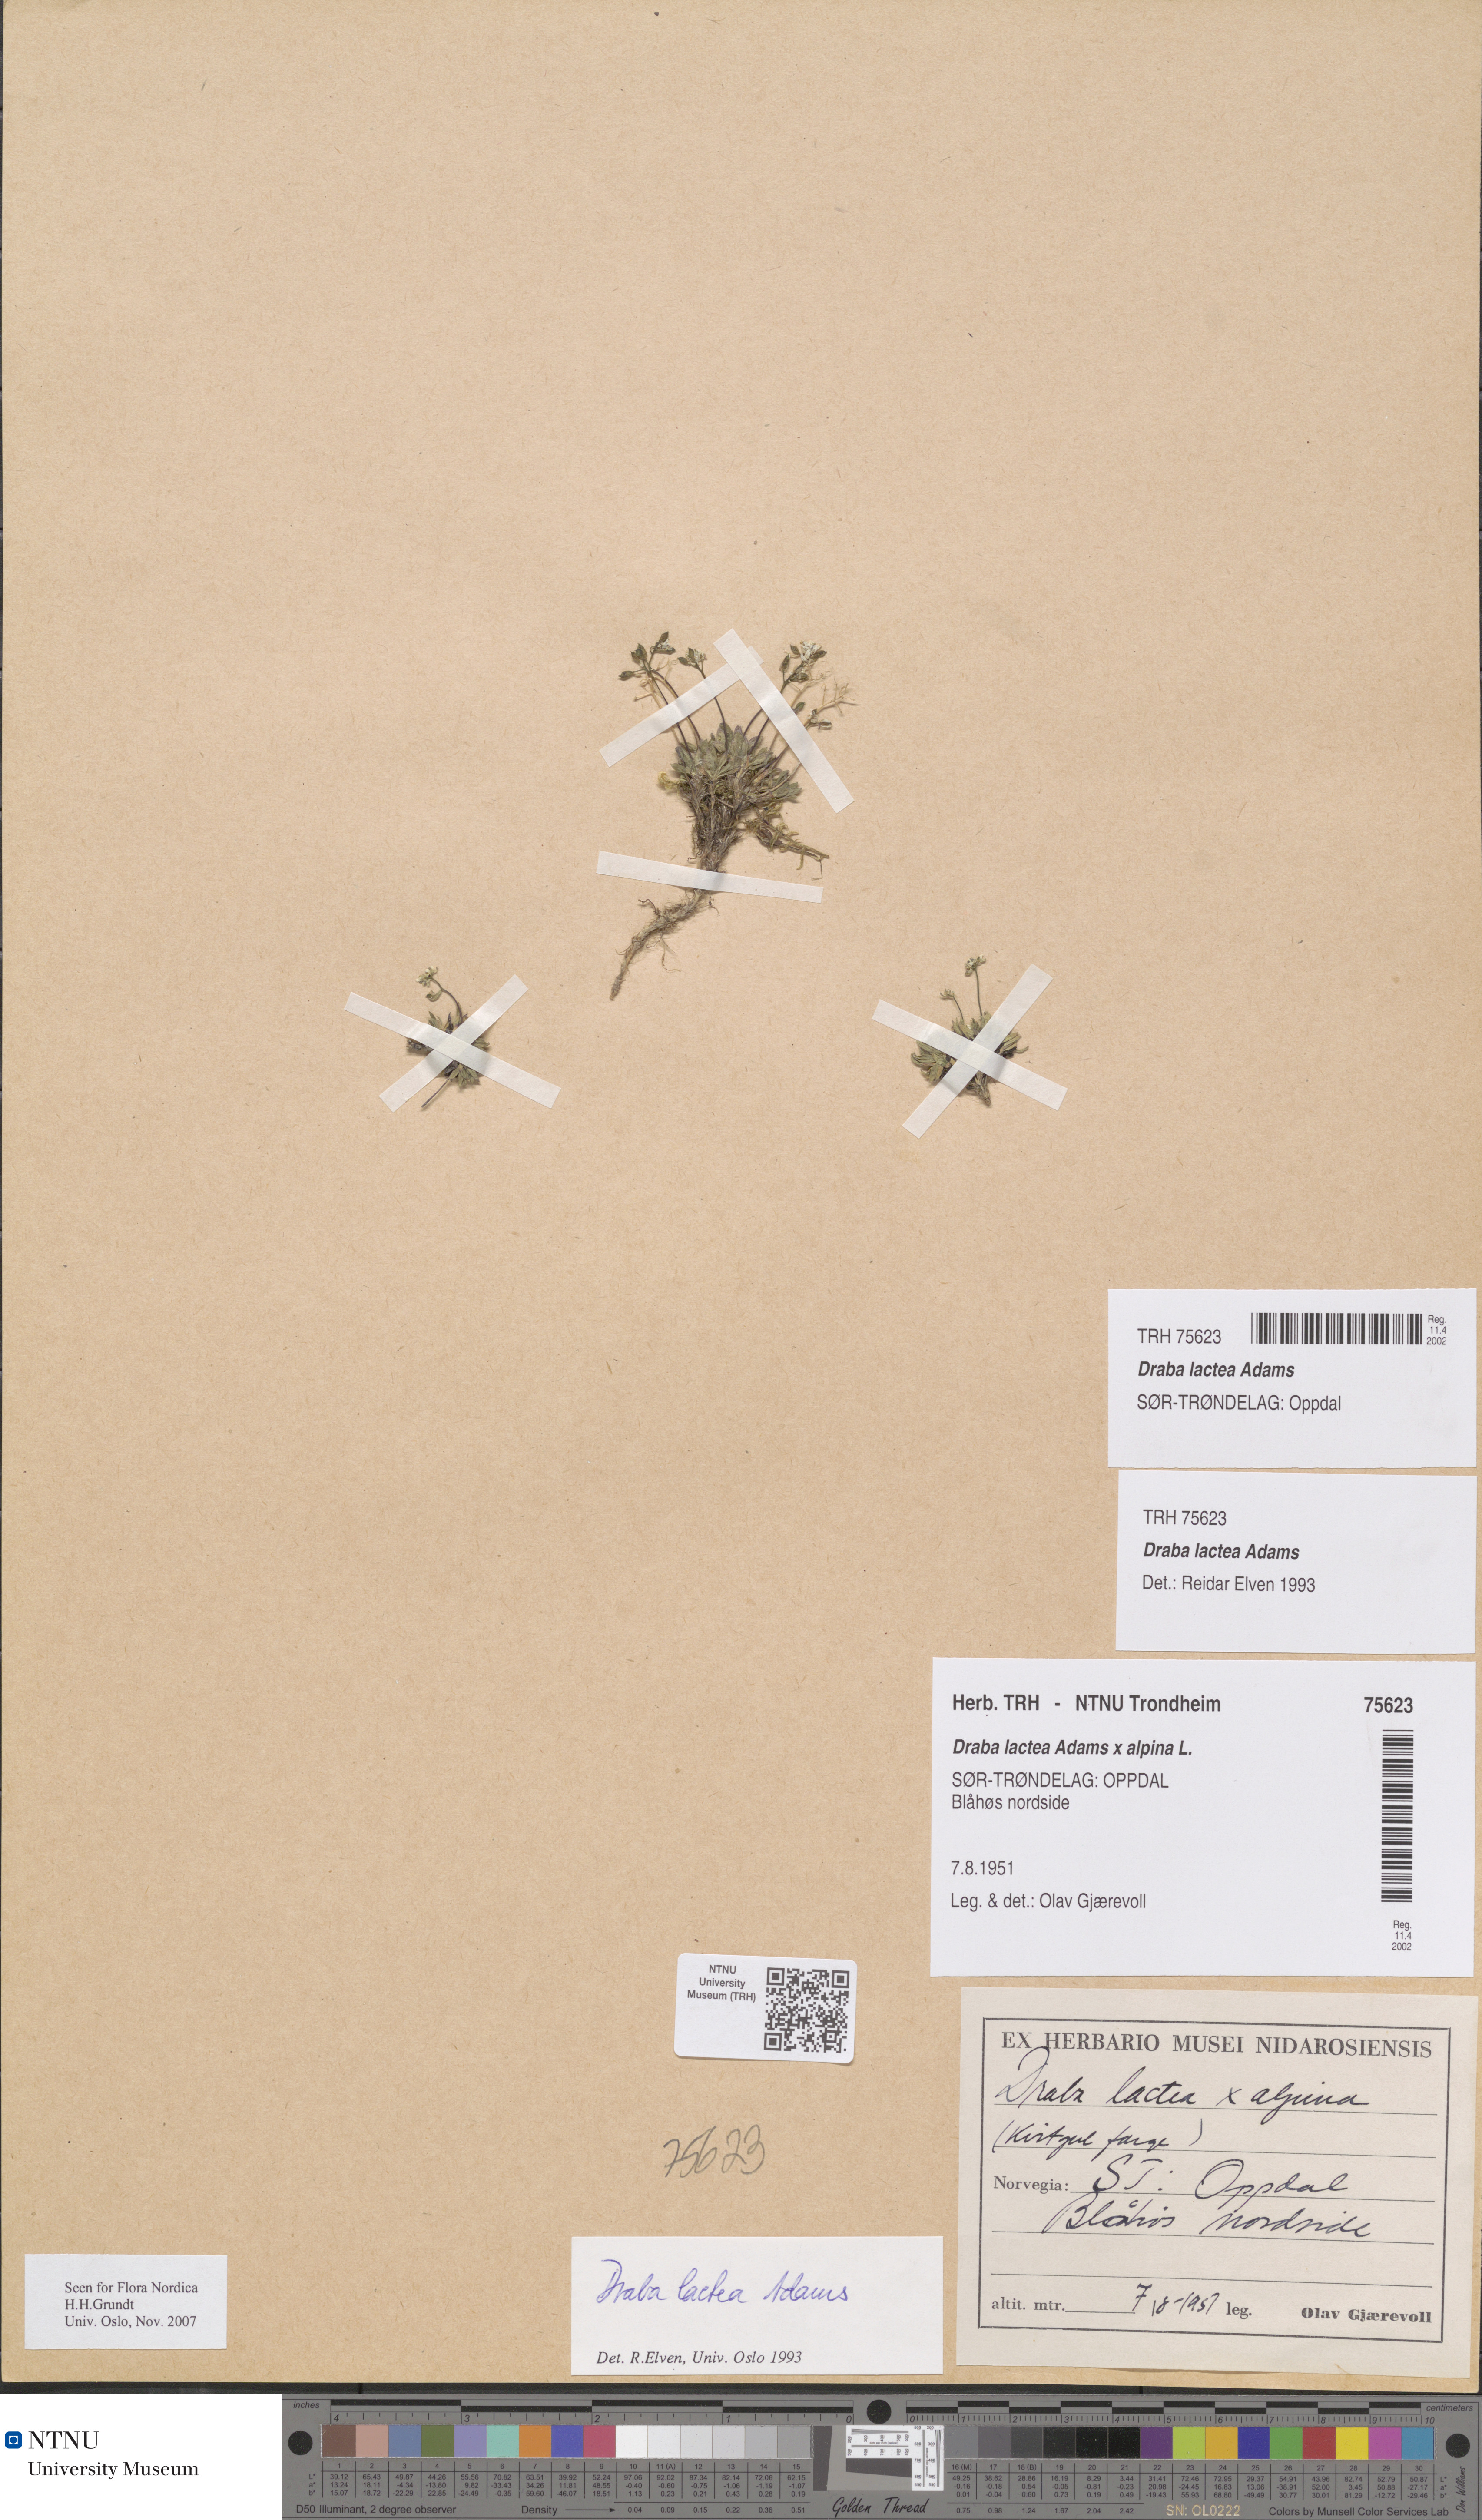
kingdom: Plantae
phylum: Tracheophyta
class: Magnoliopsida
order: Brassicales
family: Brassicaceae
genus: Draba
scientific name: Draba lactea
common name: Milky draba
